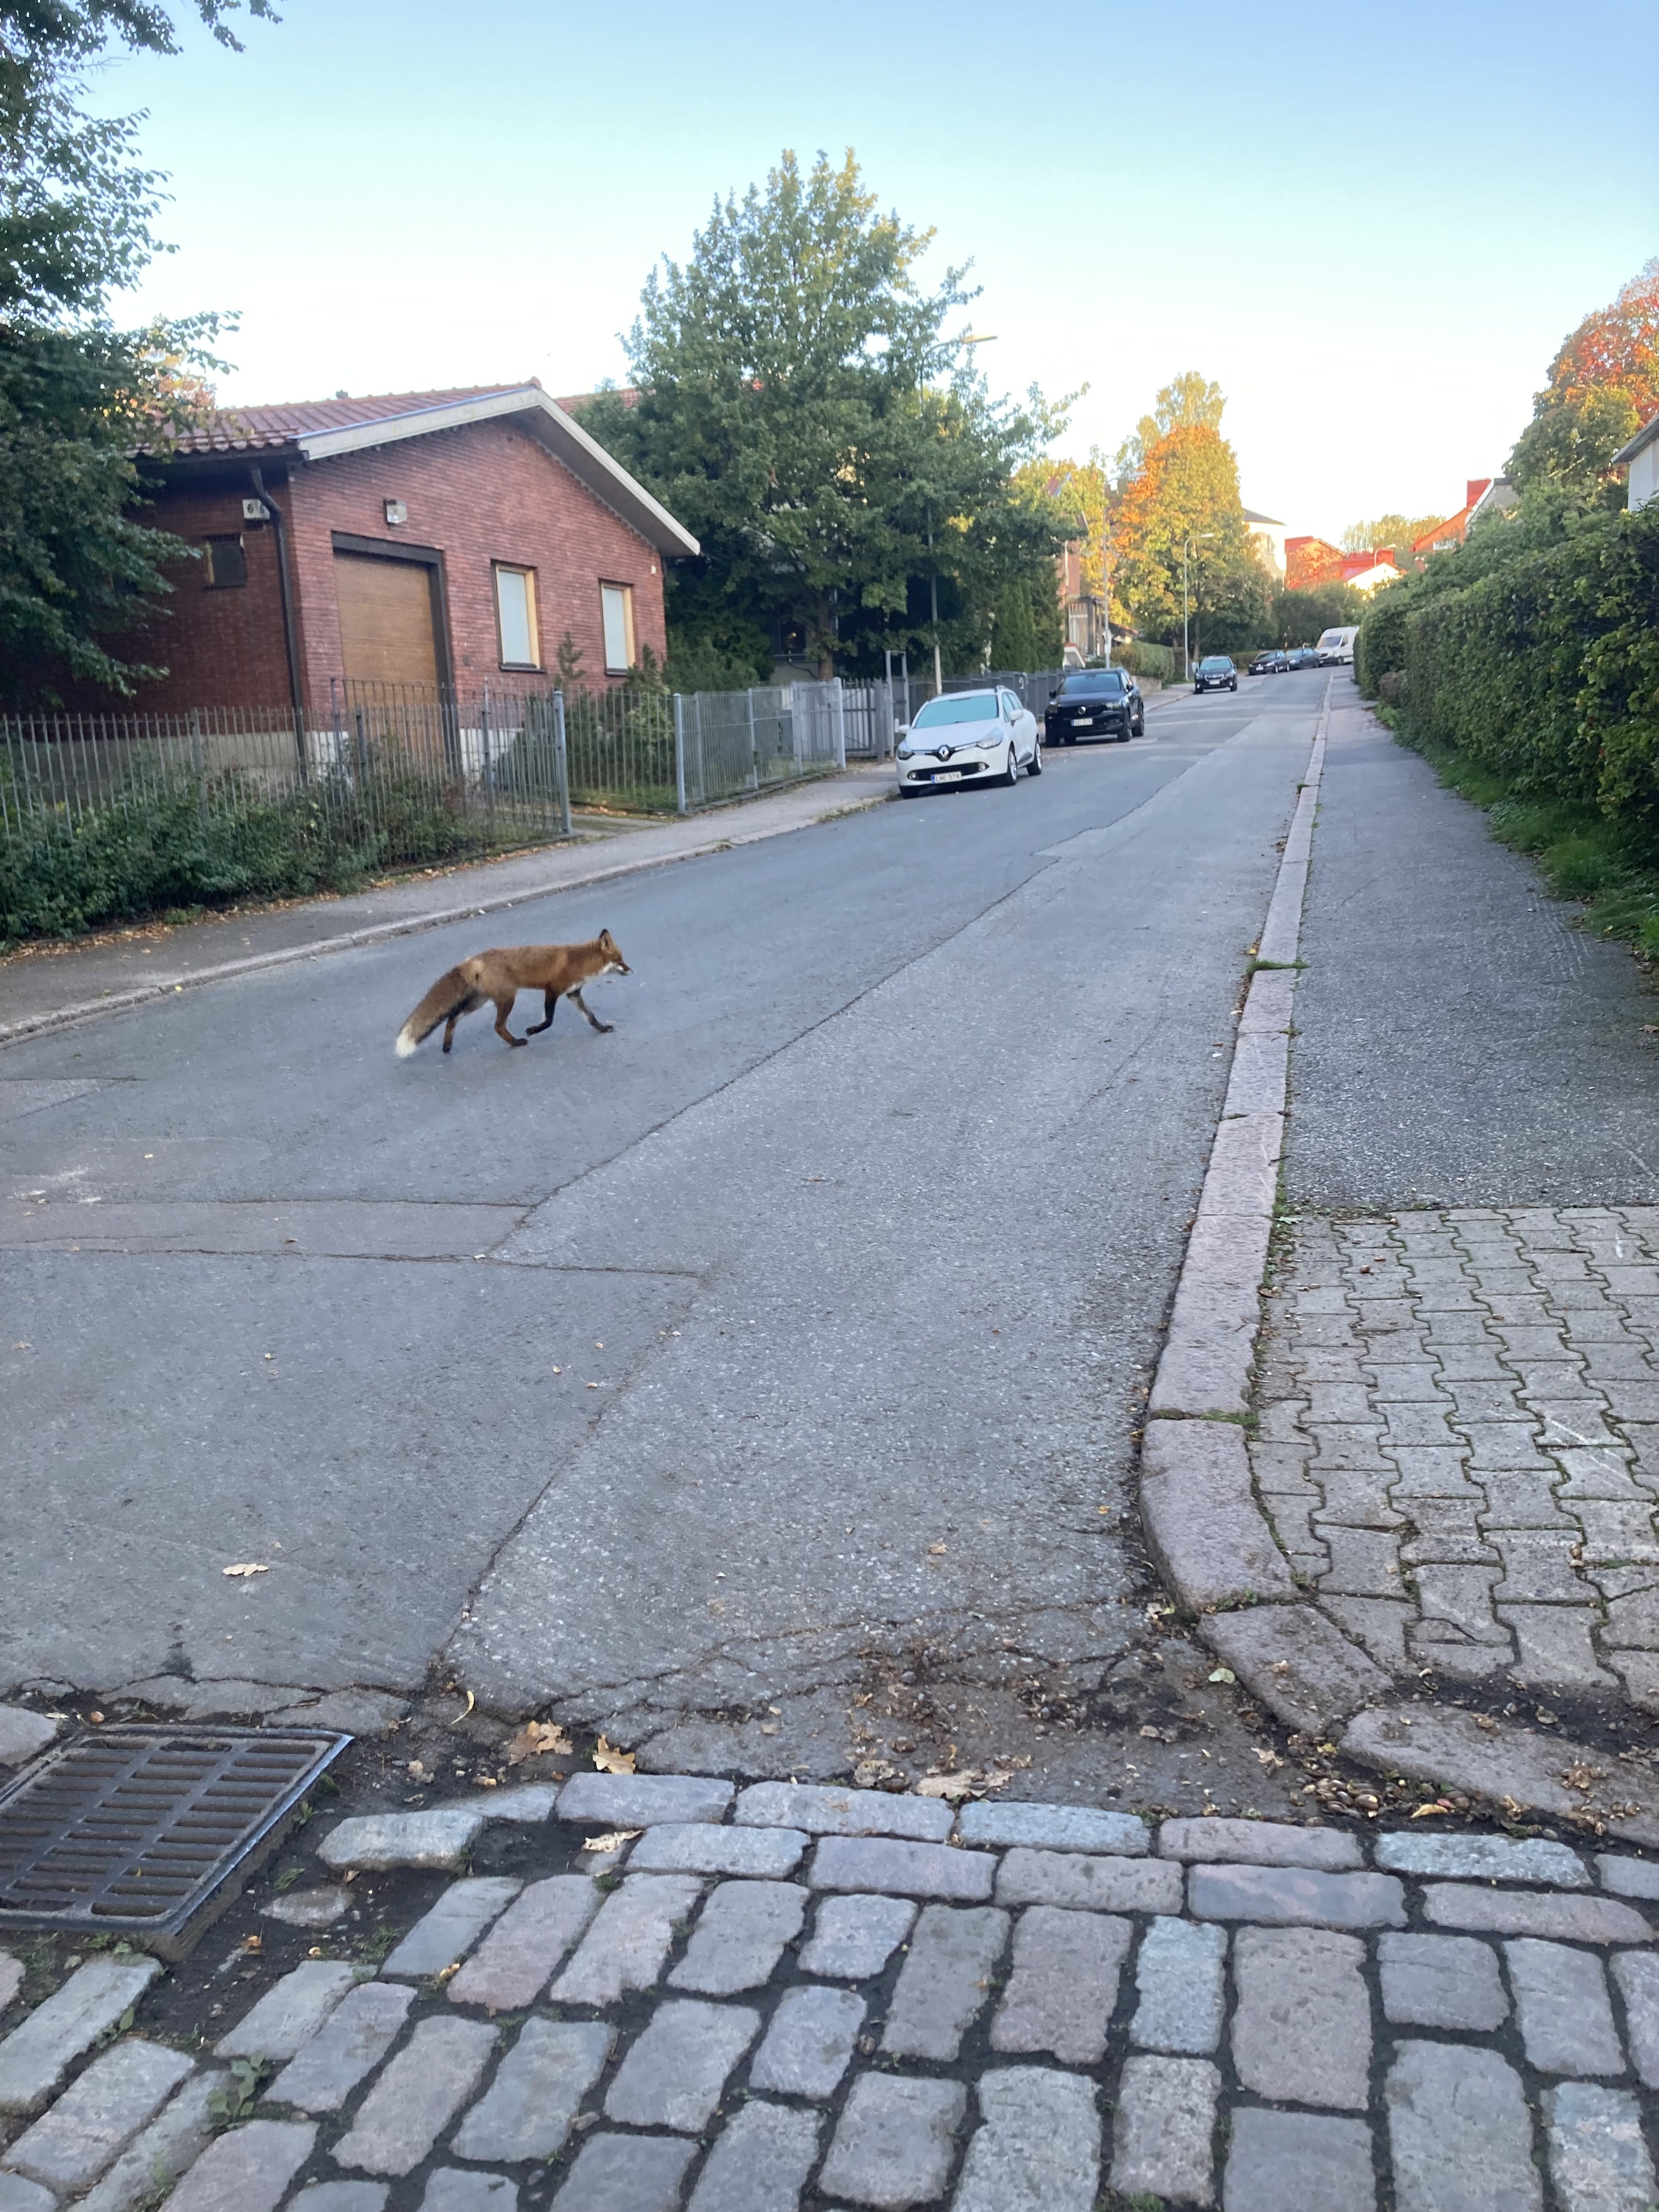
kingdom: Animalia
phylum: Chordata
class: Mammalia
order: Carnivora
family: Canidae
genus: Vulpes
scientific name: Vulpes vulpes
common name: Red fox
